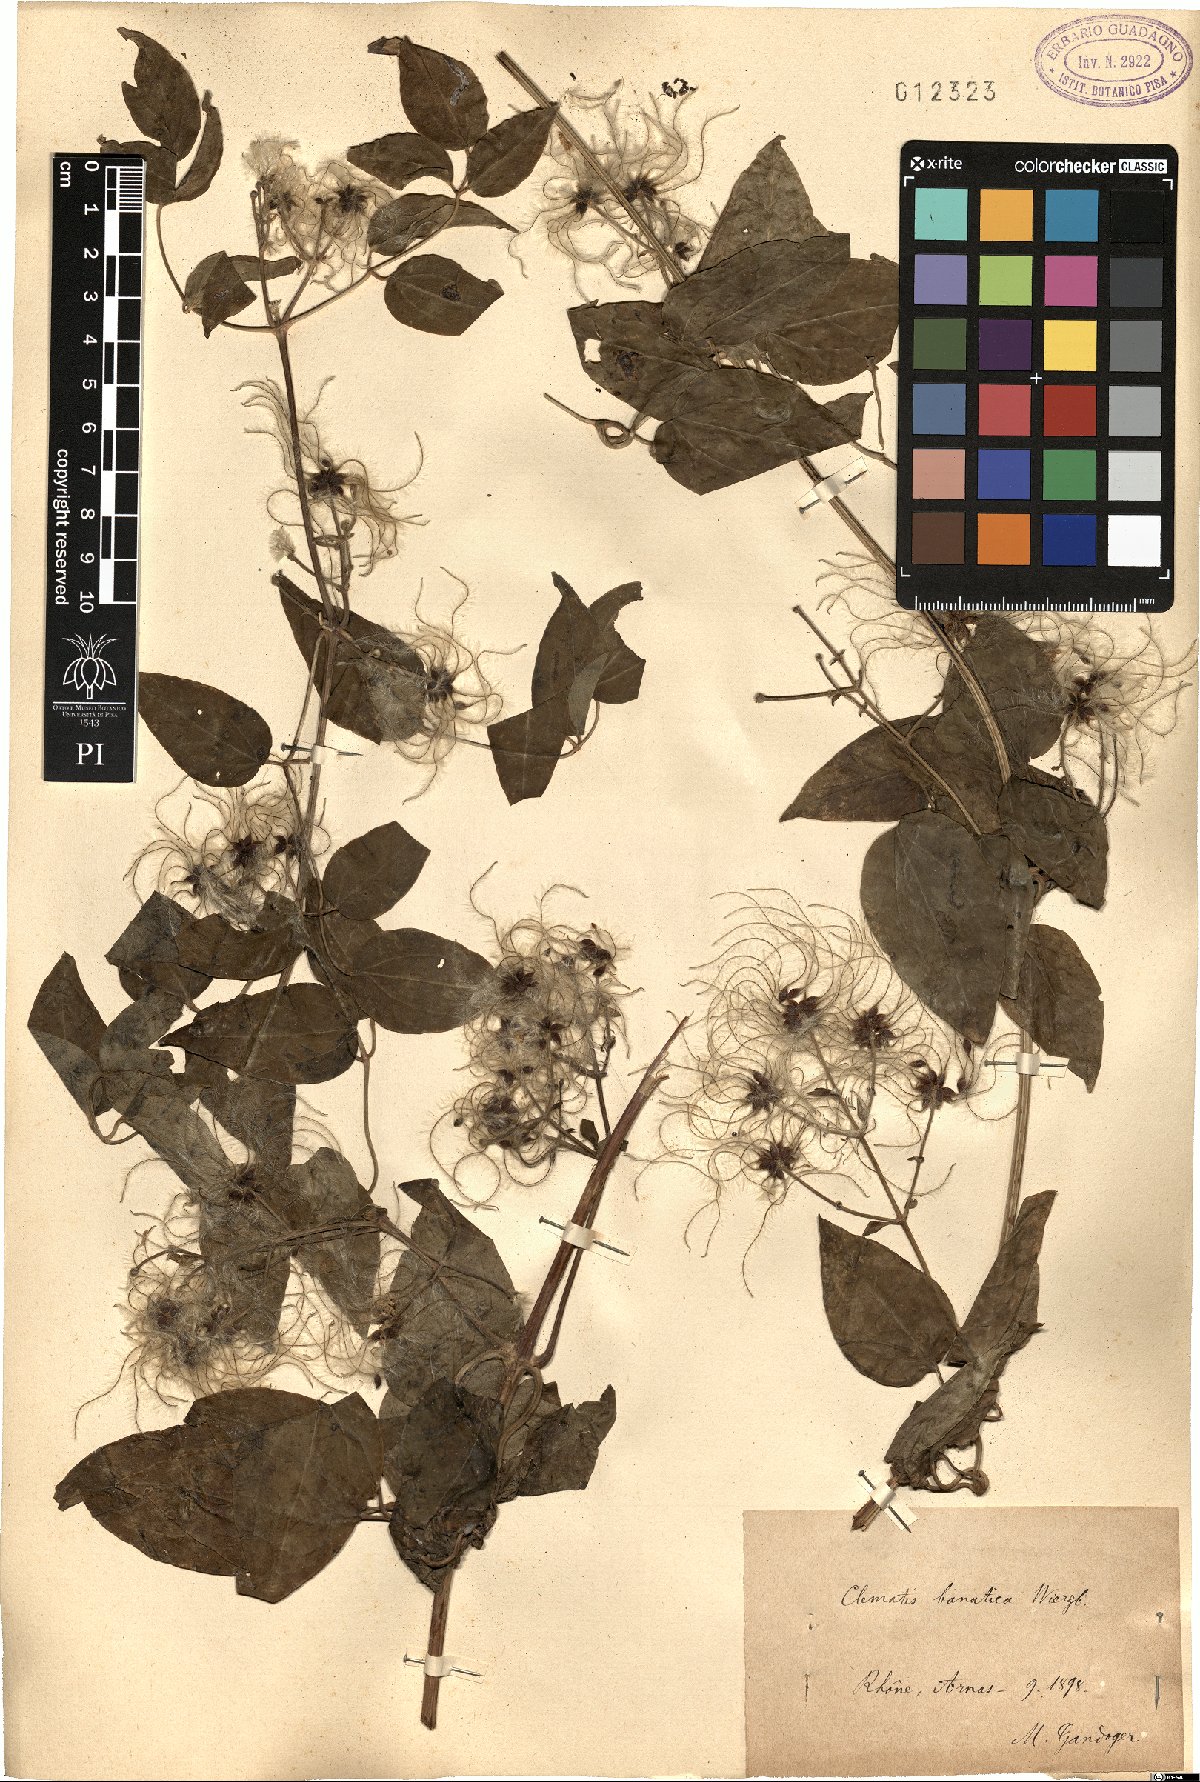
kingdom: Plantae
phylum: Tracheophyta
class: Magnoliopsida
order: Ranunculales
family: Ranunculaceae
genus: Clematis
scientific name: Clematis vitalba
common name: Evergreen clematis
